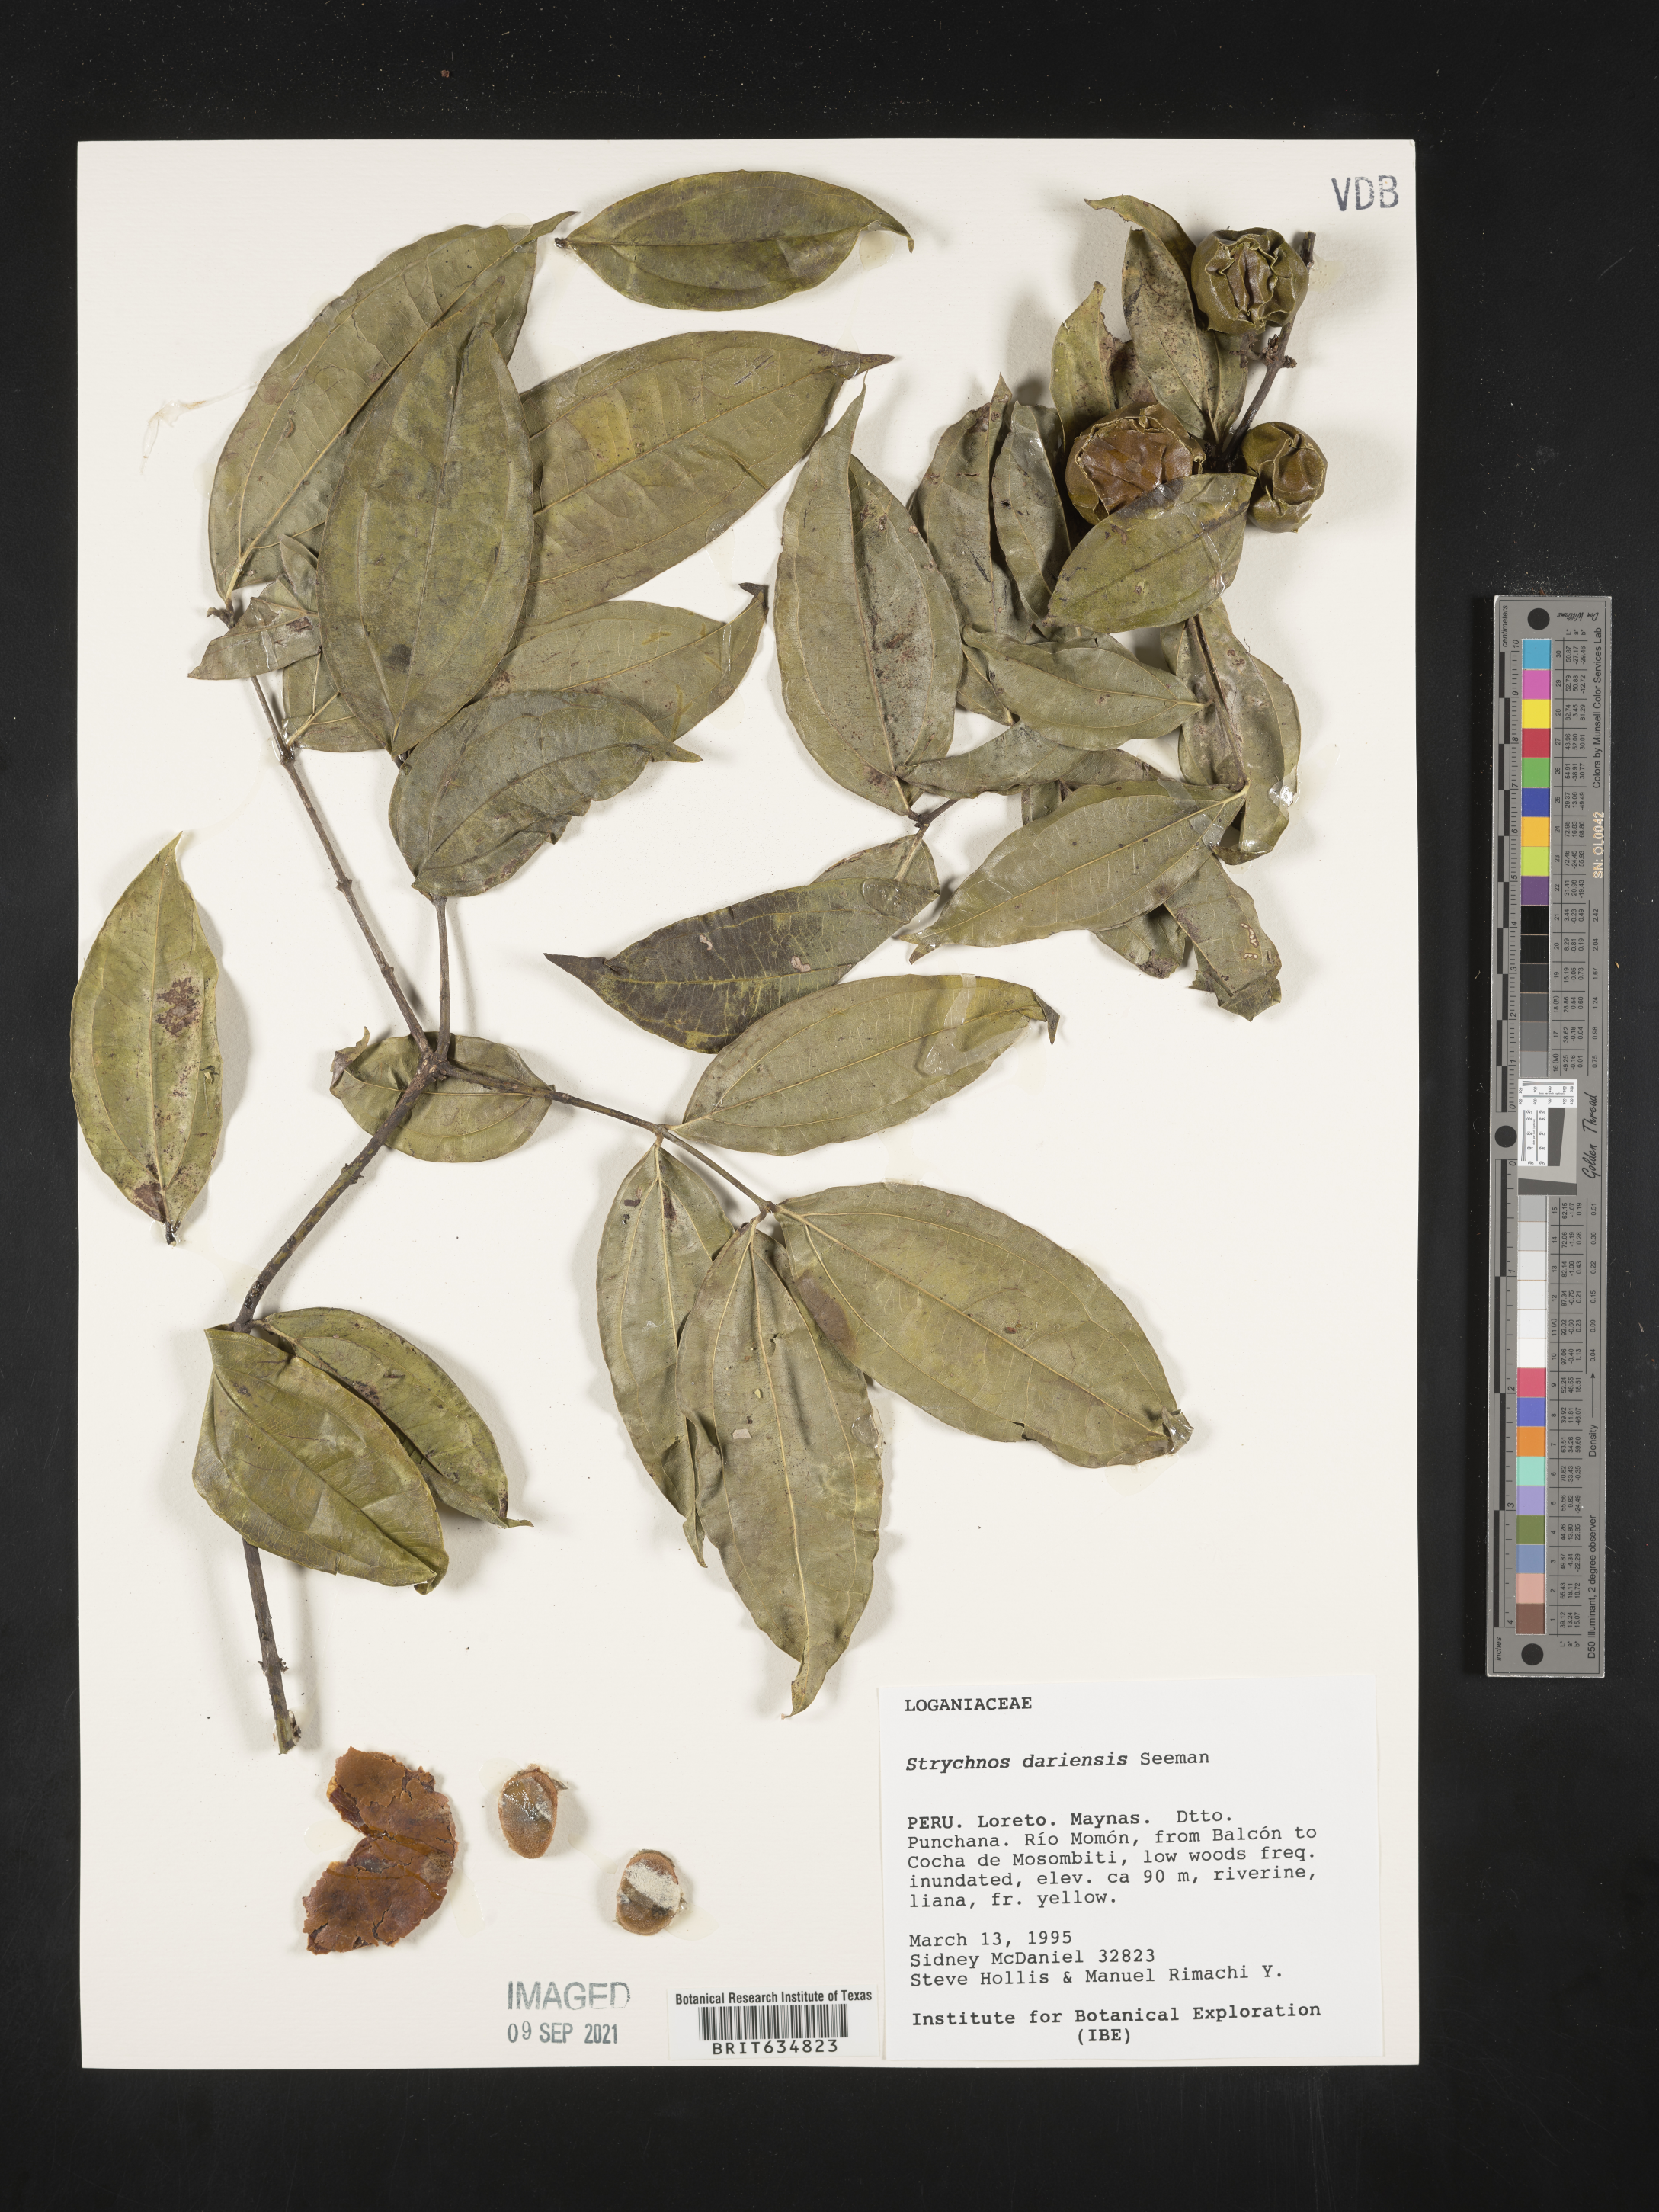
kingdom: Plantae
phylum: Tracheophyta
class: Magnoliopsida
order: Gentianales
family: Loganiaceae
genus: Strychnos
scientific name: Strychnos
